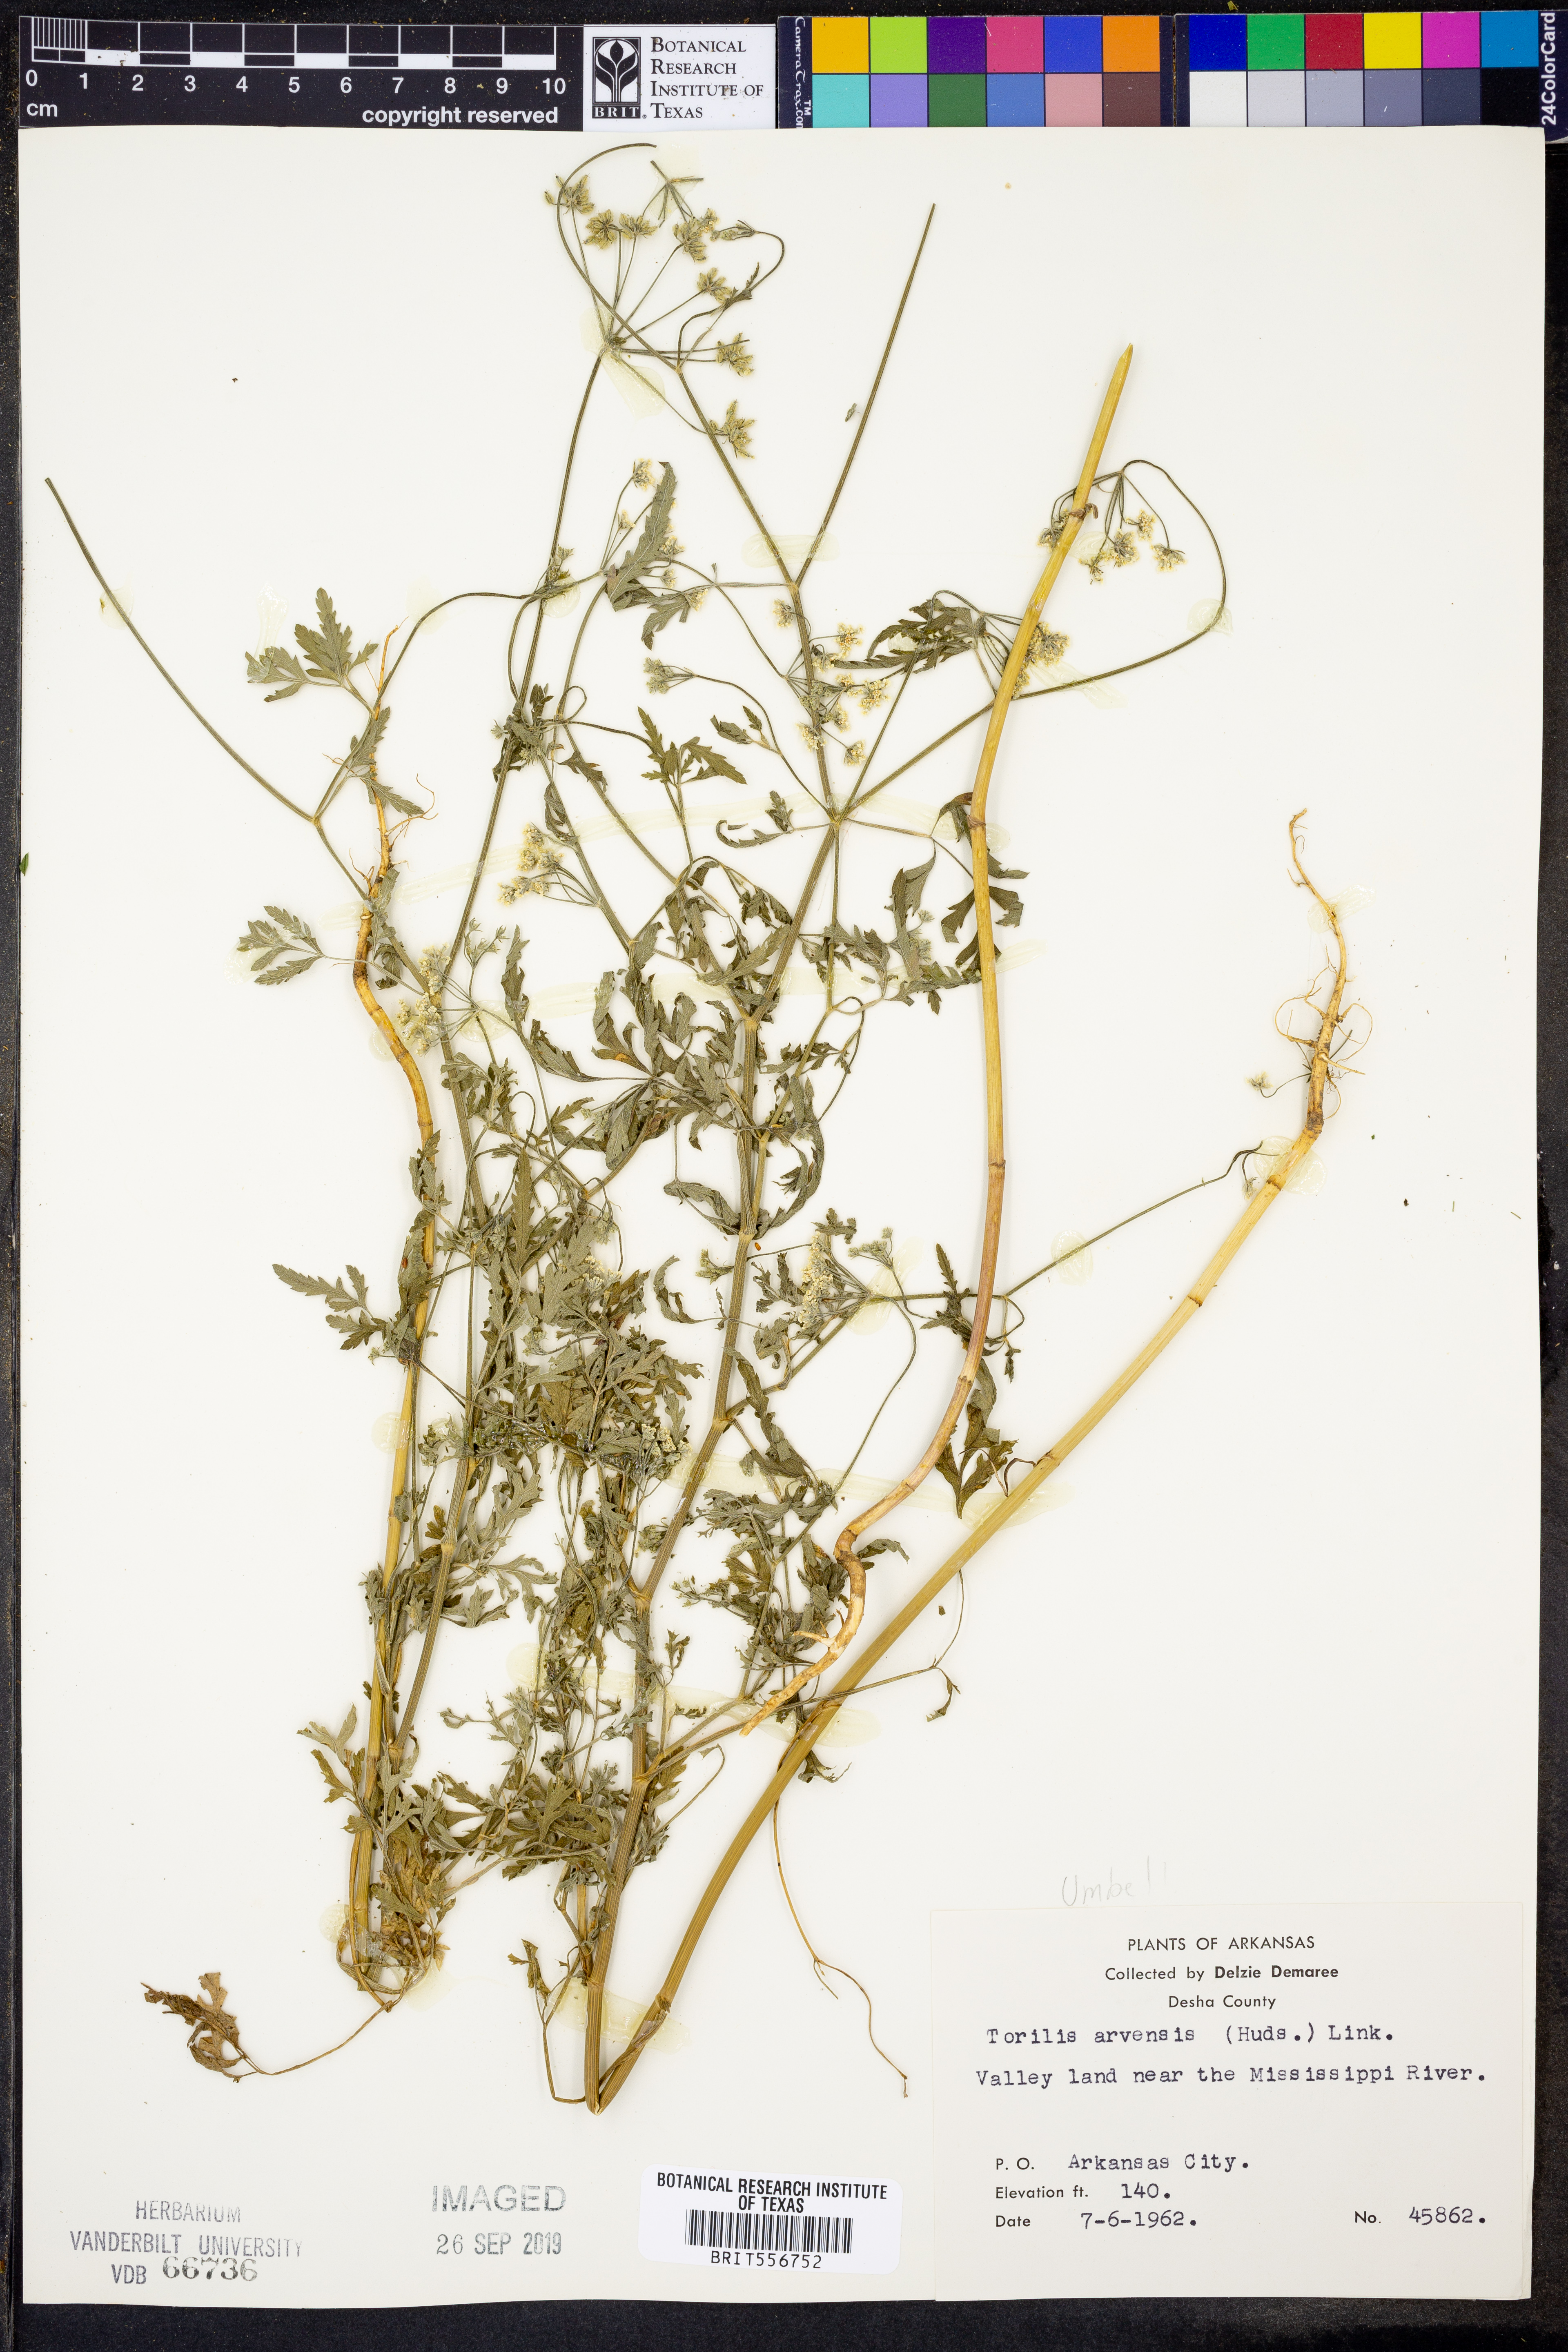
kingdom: Plantae
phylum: Tracheophyta
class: Magnoliopsida
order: Apiales
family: Apiaceae
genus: Torilis
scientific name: Torilis arvensis
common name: Spreading hedge-parsley
